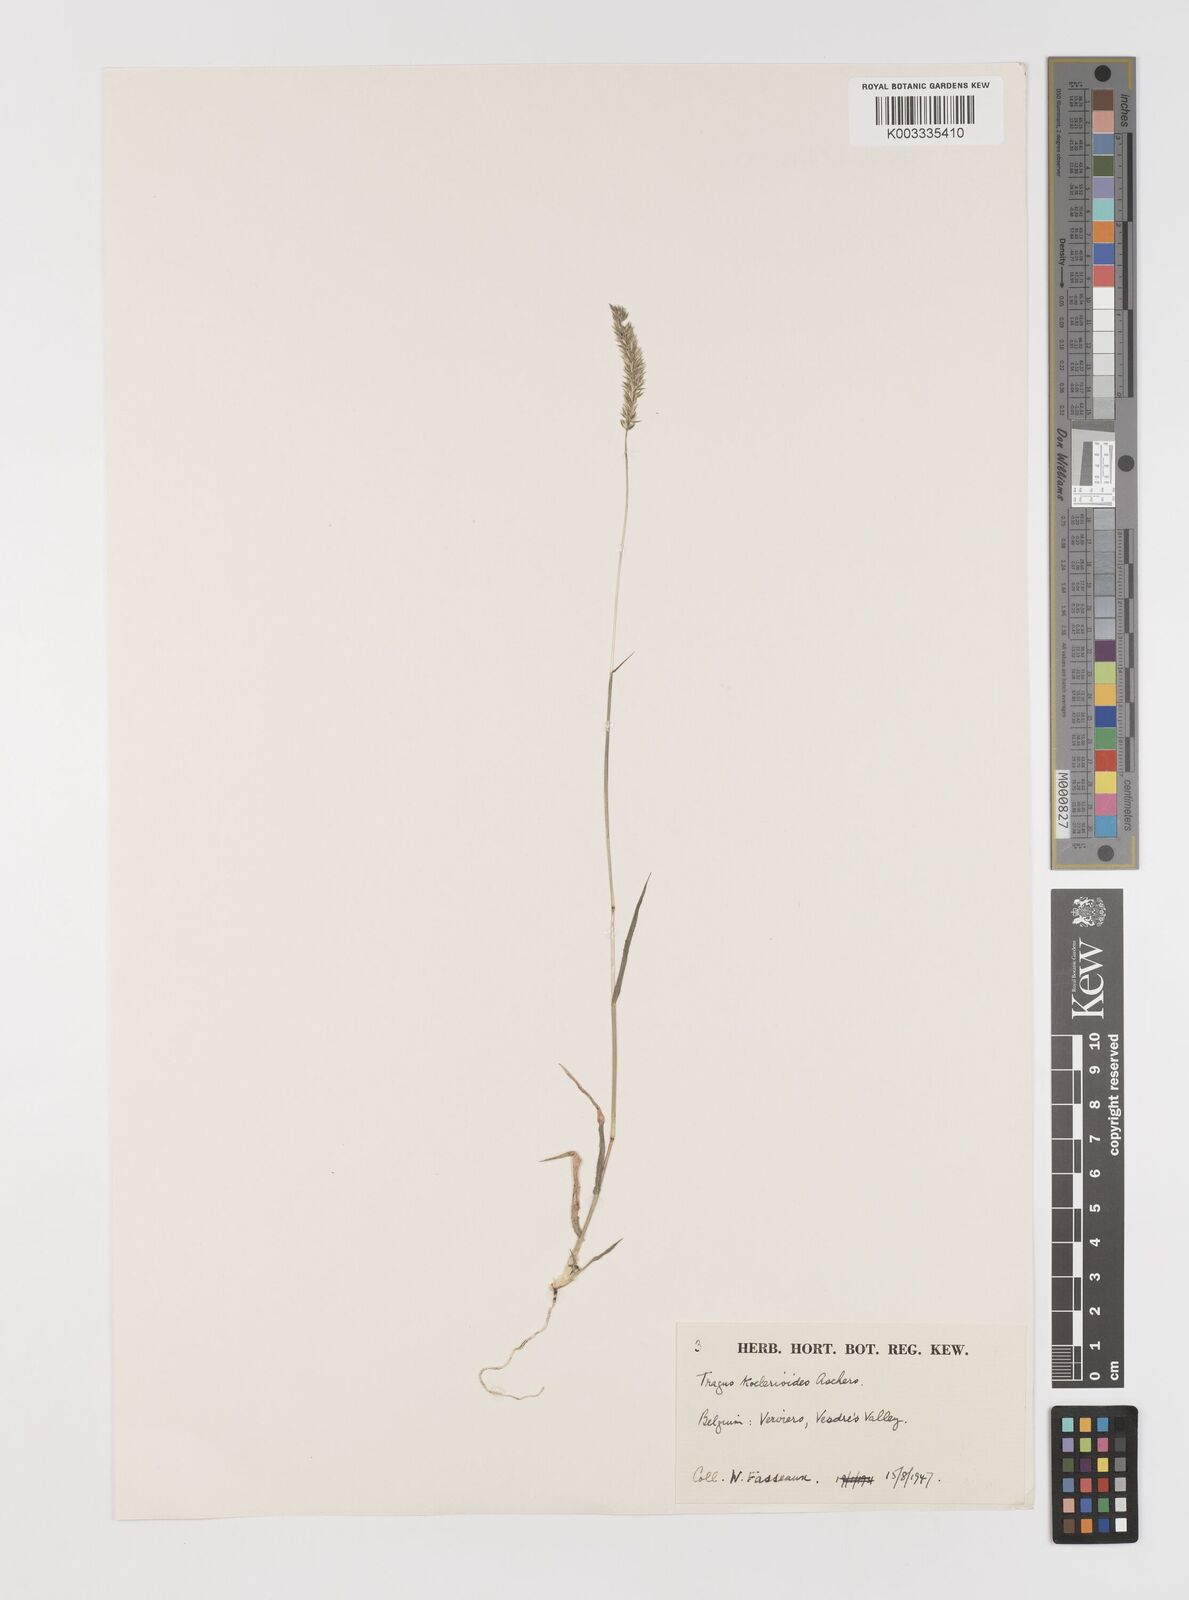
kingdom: Plantae
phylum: Tracheophyta
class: Liliopsida
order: Poales
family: Poaceae
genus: Tragus
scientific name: Tragus koelerioides
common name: Creeping carrot-seed grass
